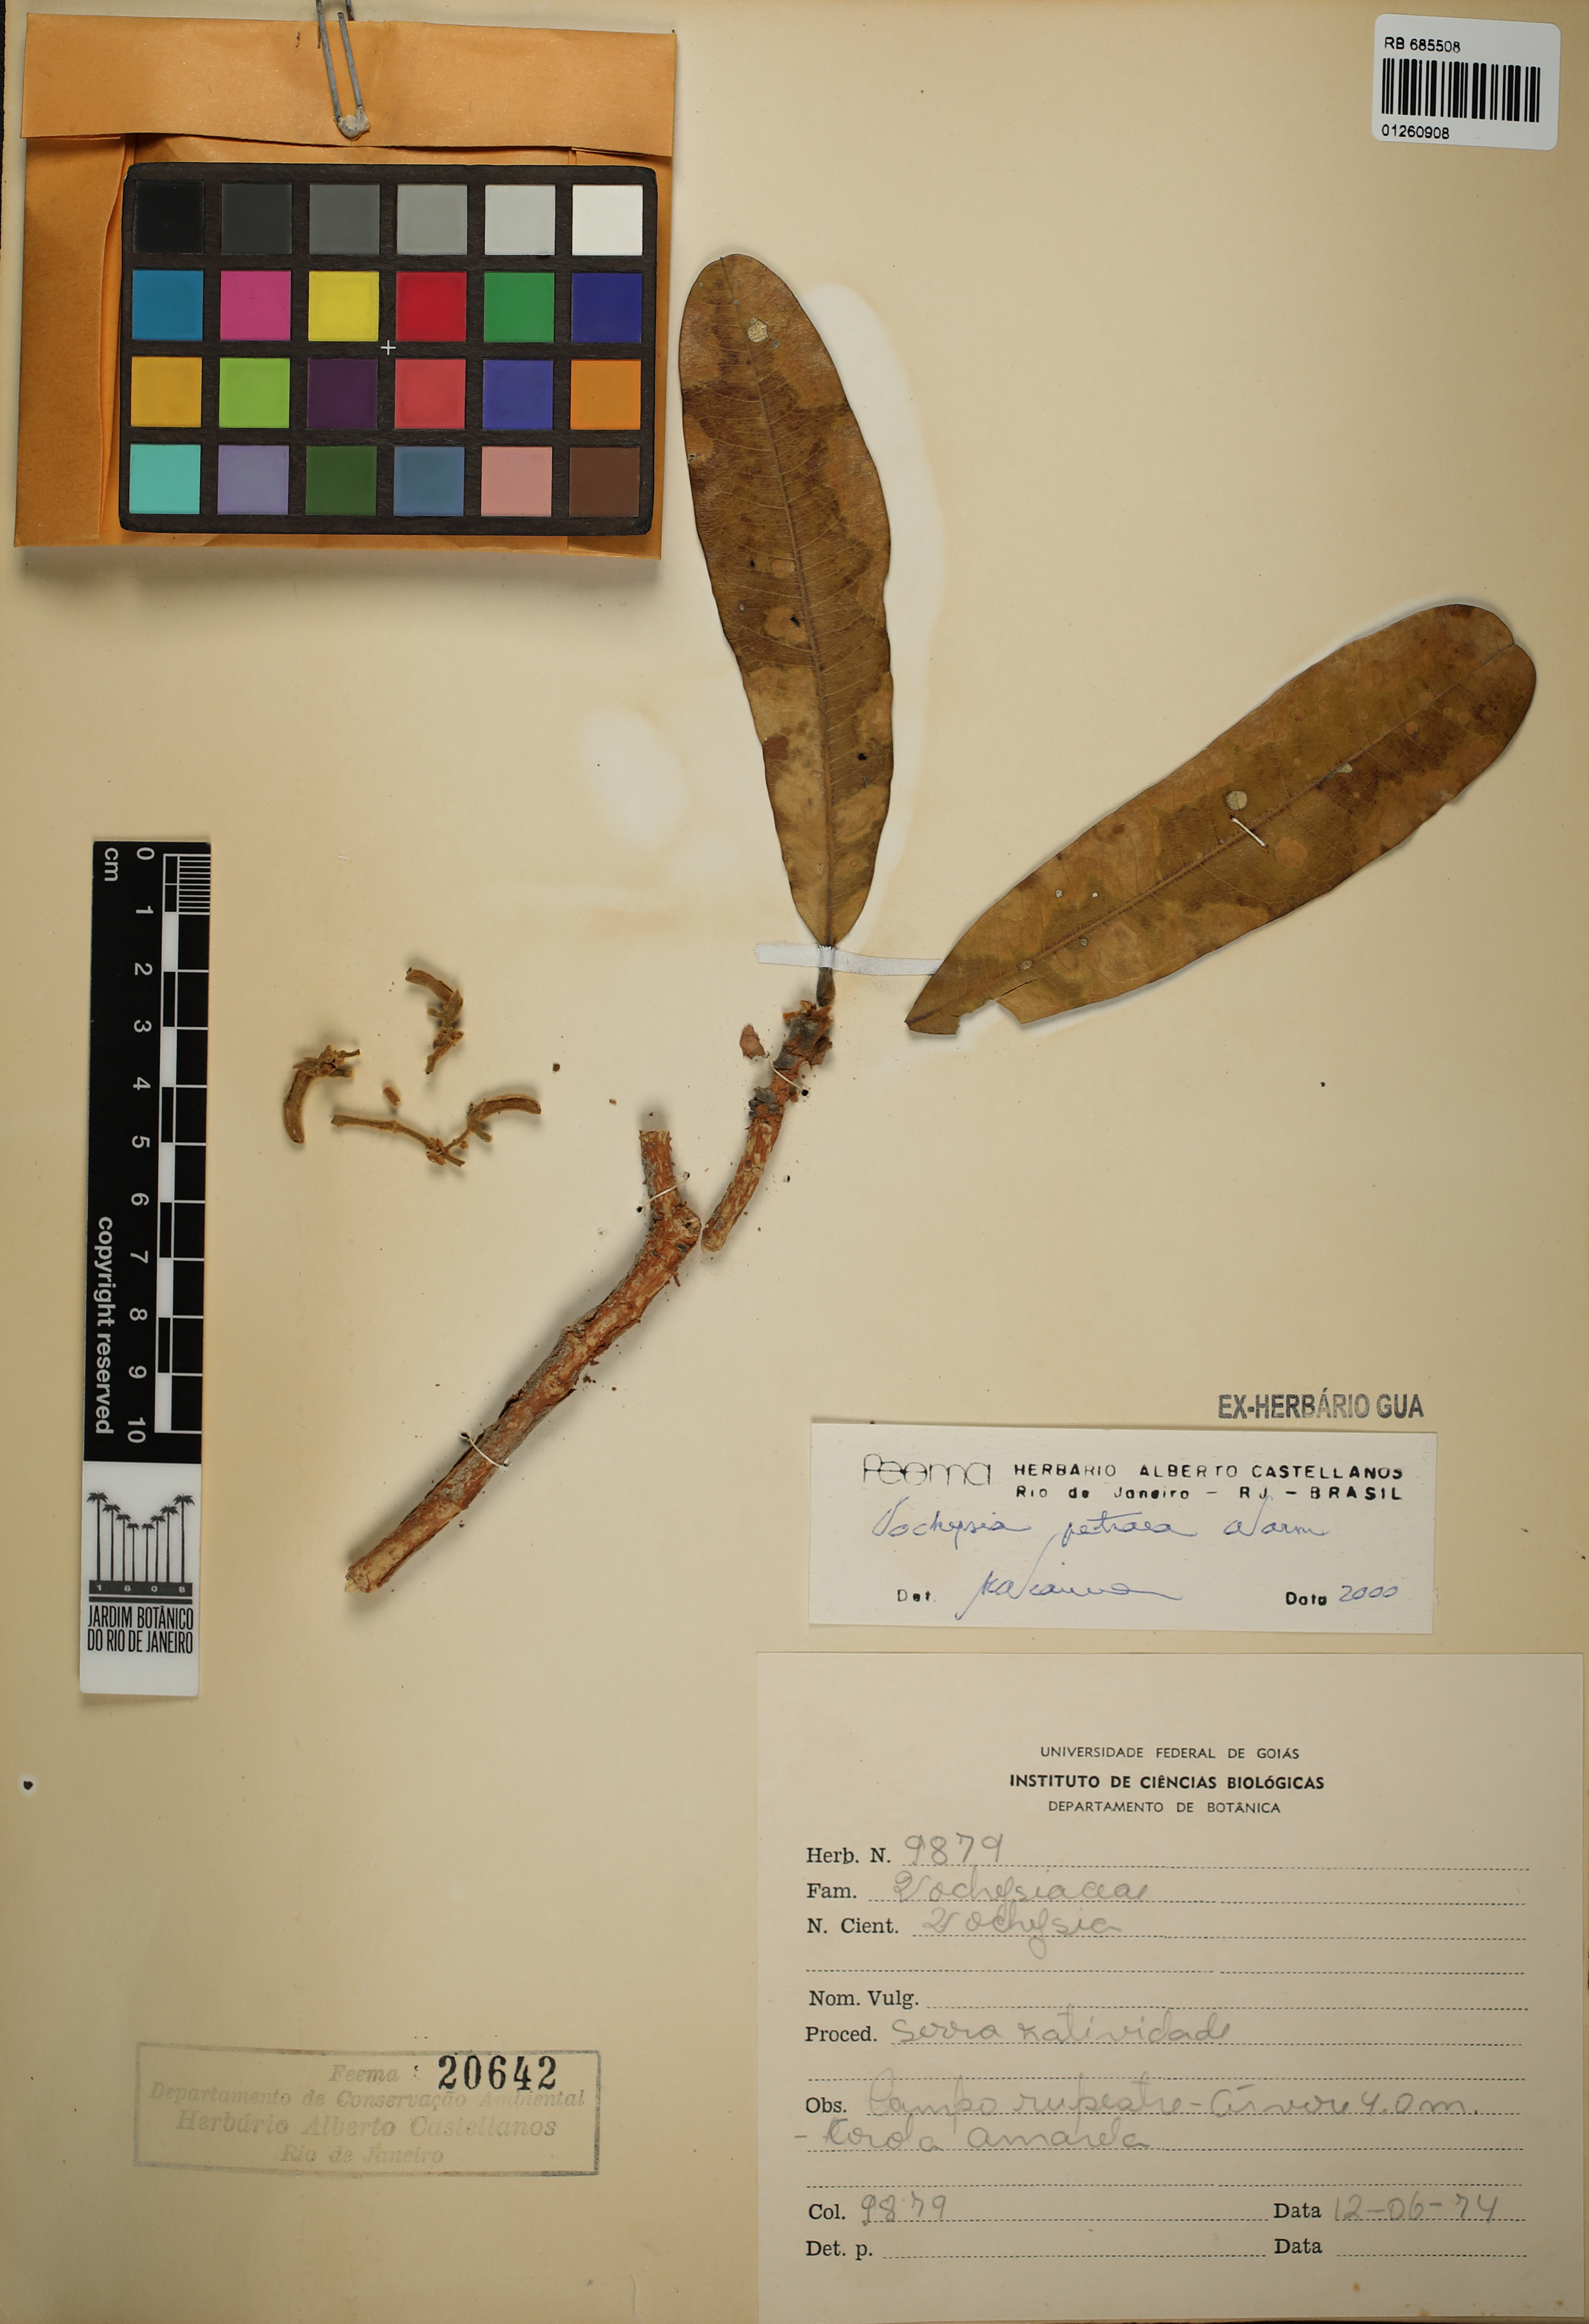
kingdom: Plantae
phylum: Tracheophyta
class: Magnoliopsida
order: Myrtales
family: Vochysiaceae
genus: Vochysia
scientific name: Vochysia petraea
